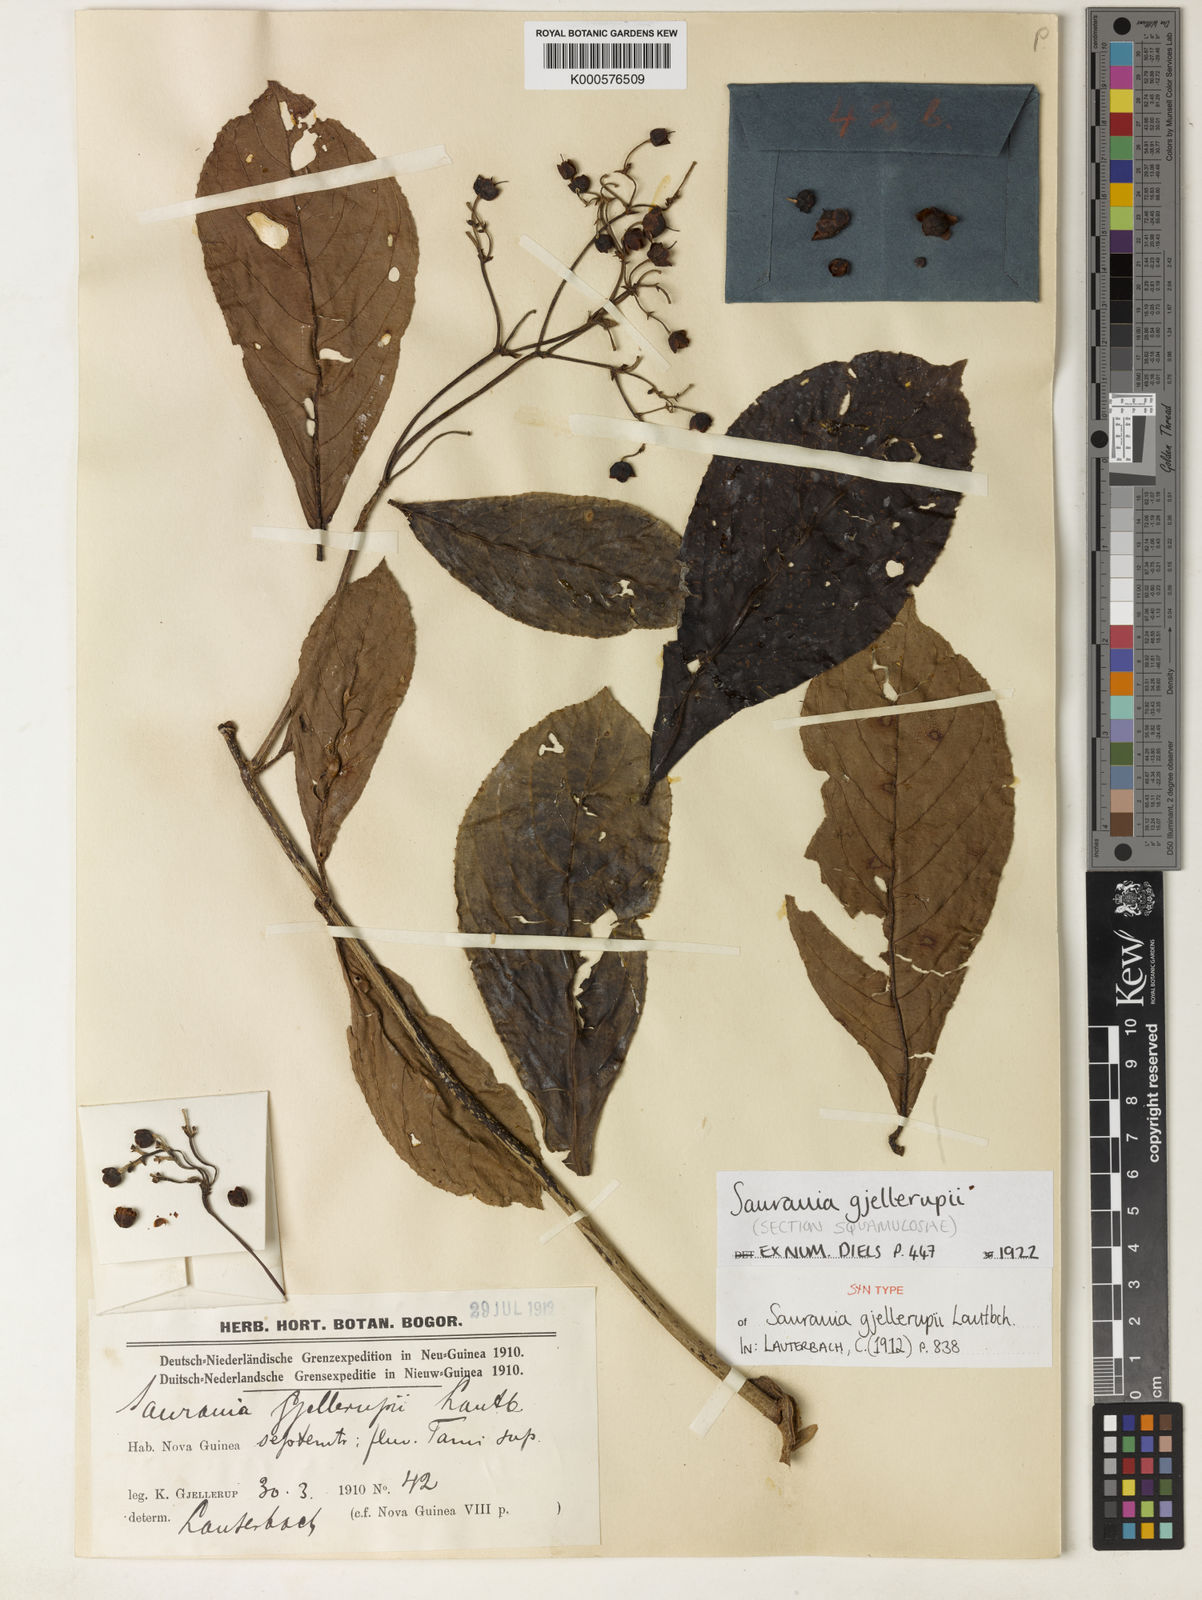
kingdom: Plantae
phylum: Tracheophyta
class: Magnoliopsida
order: Ericales
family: Actinidiaceae
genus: Saurauia
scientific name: Saurauia gjellerupii
